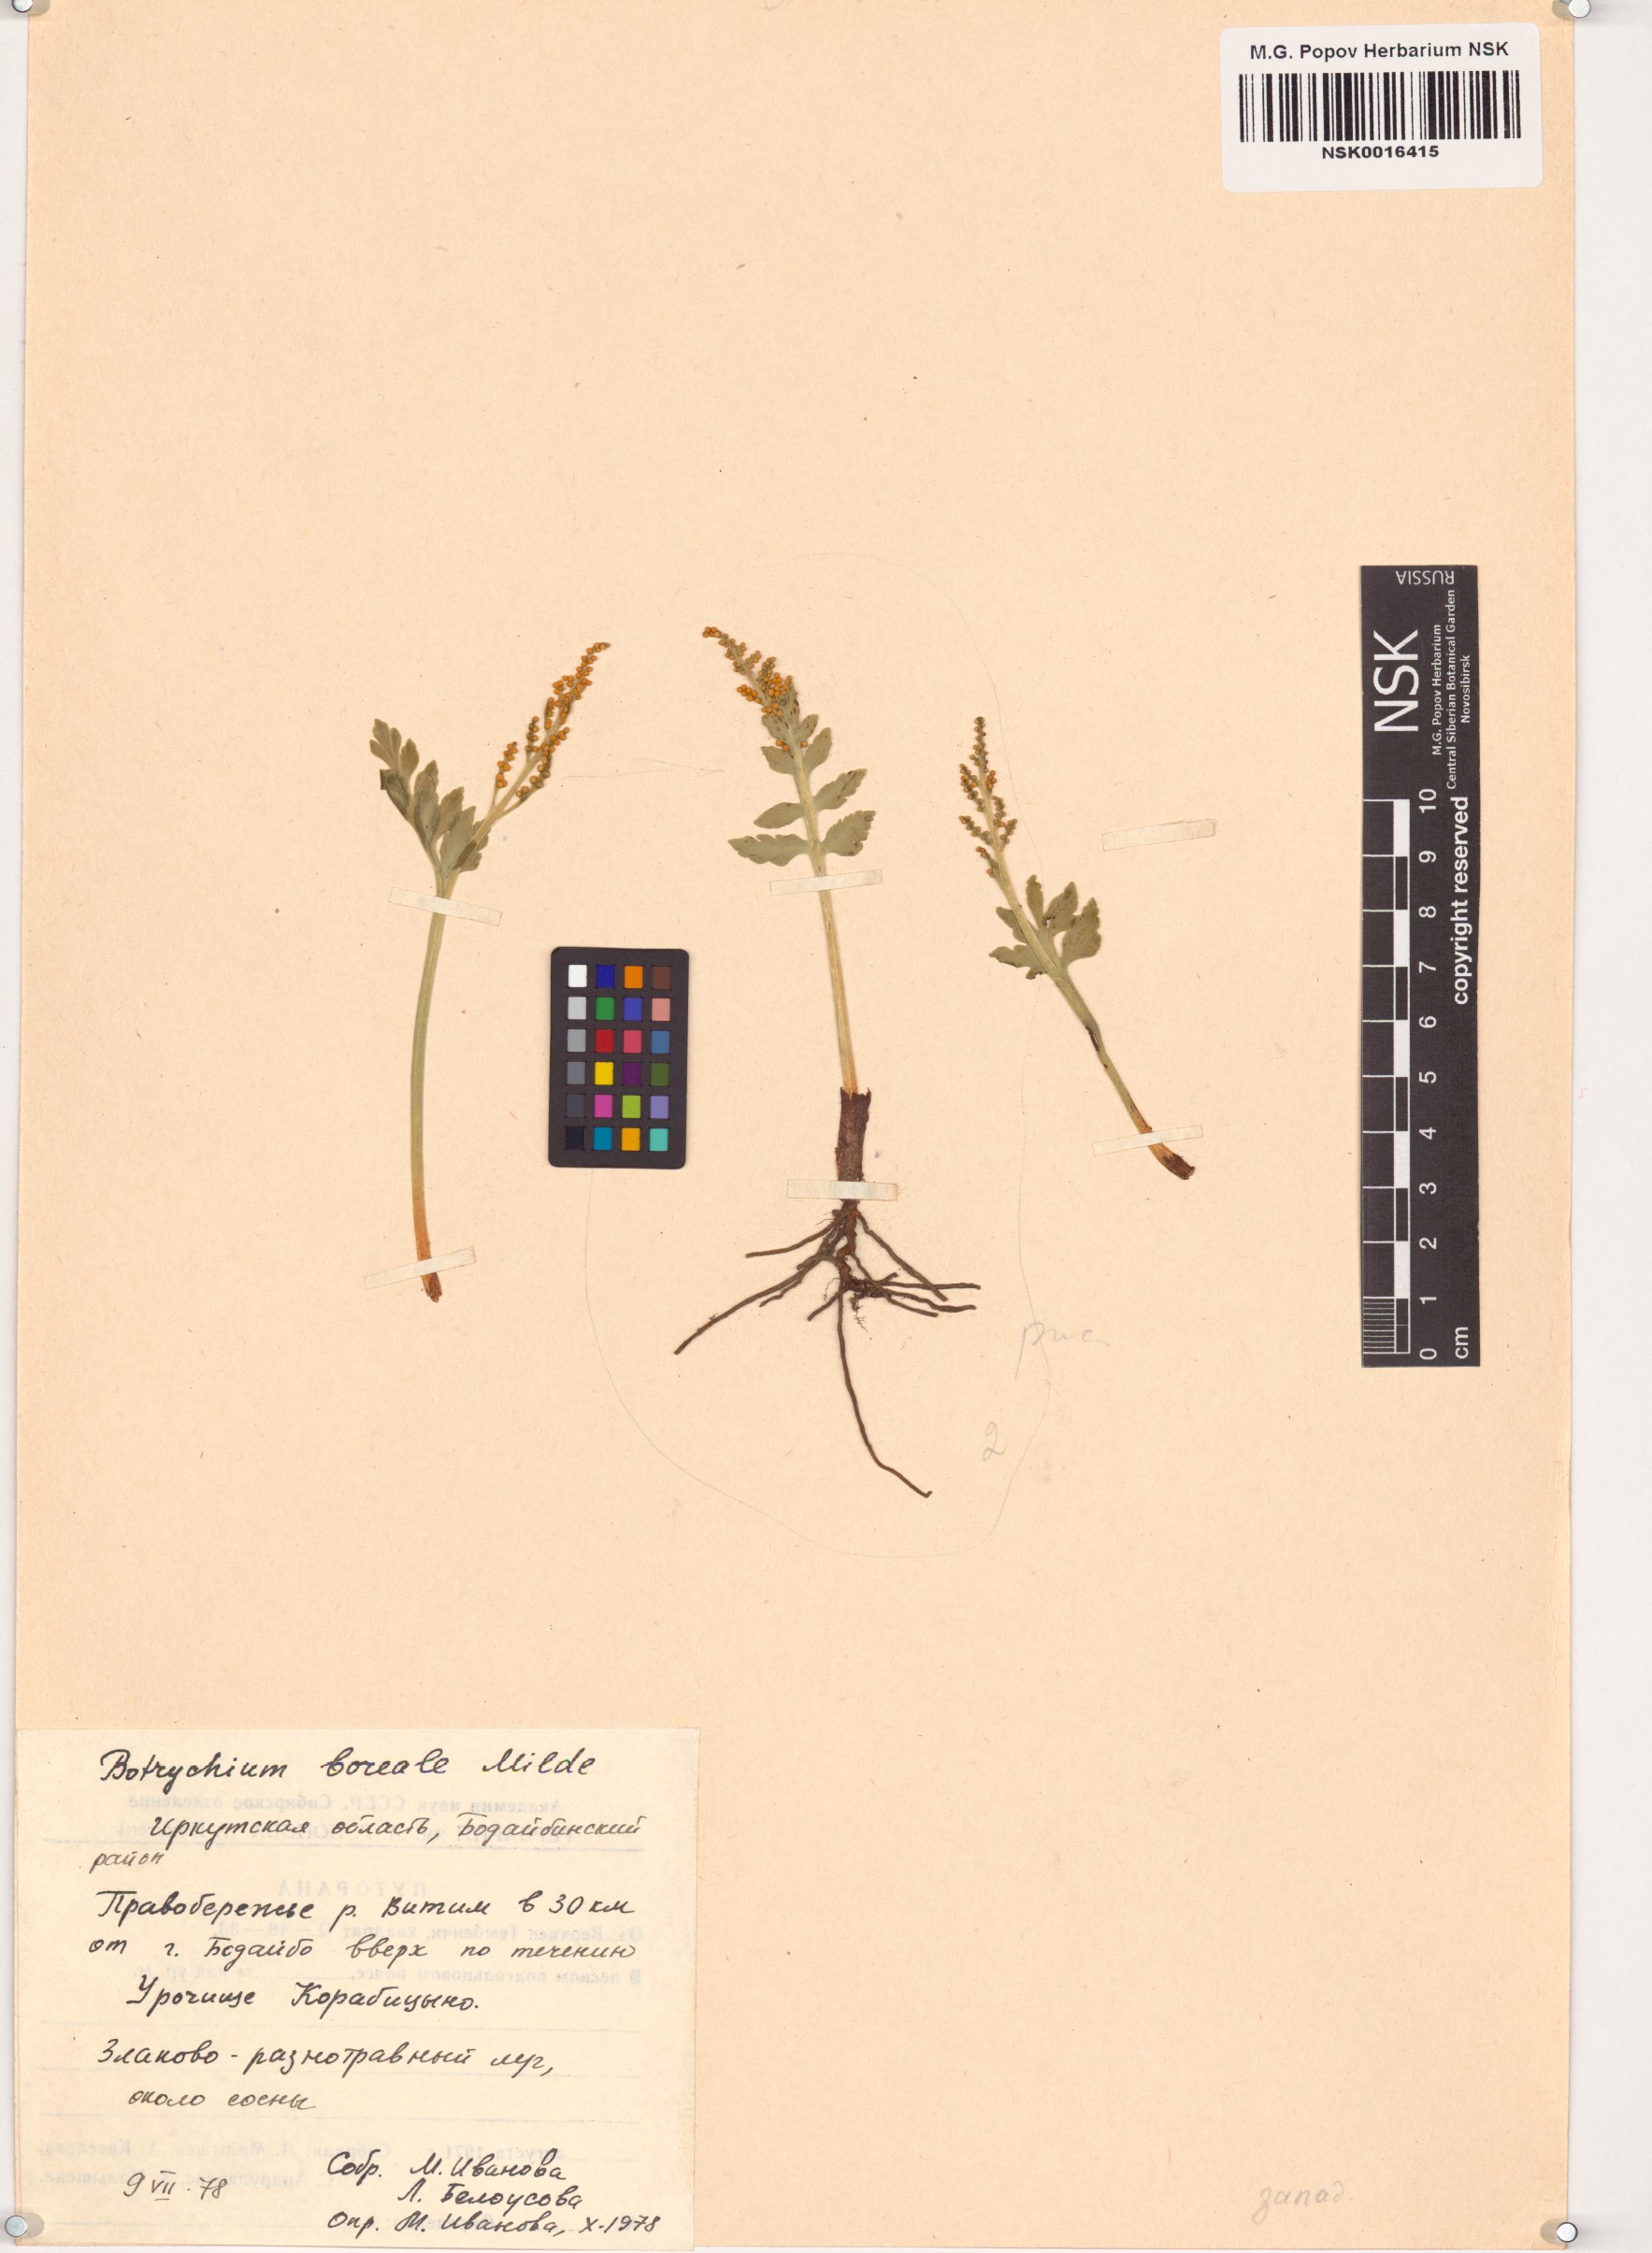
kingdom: Plantae
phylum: Tracheophyta
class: Polypodiopsida
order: Ophioglossales
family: Ophioglossaceae
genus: Botrychium
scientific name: Botrychium boreale
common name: Boreal moonwort
